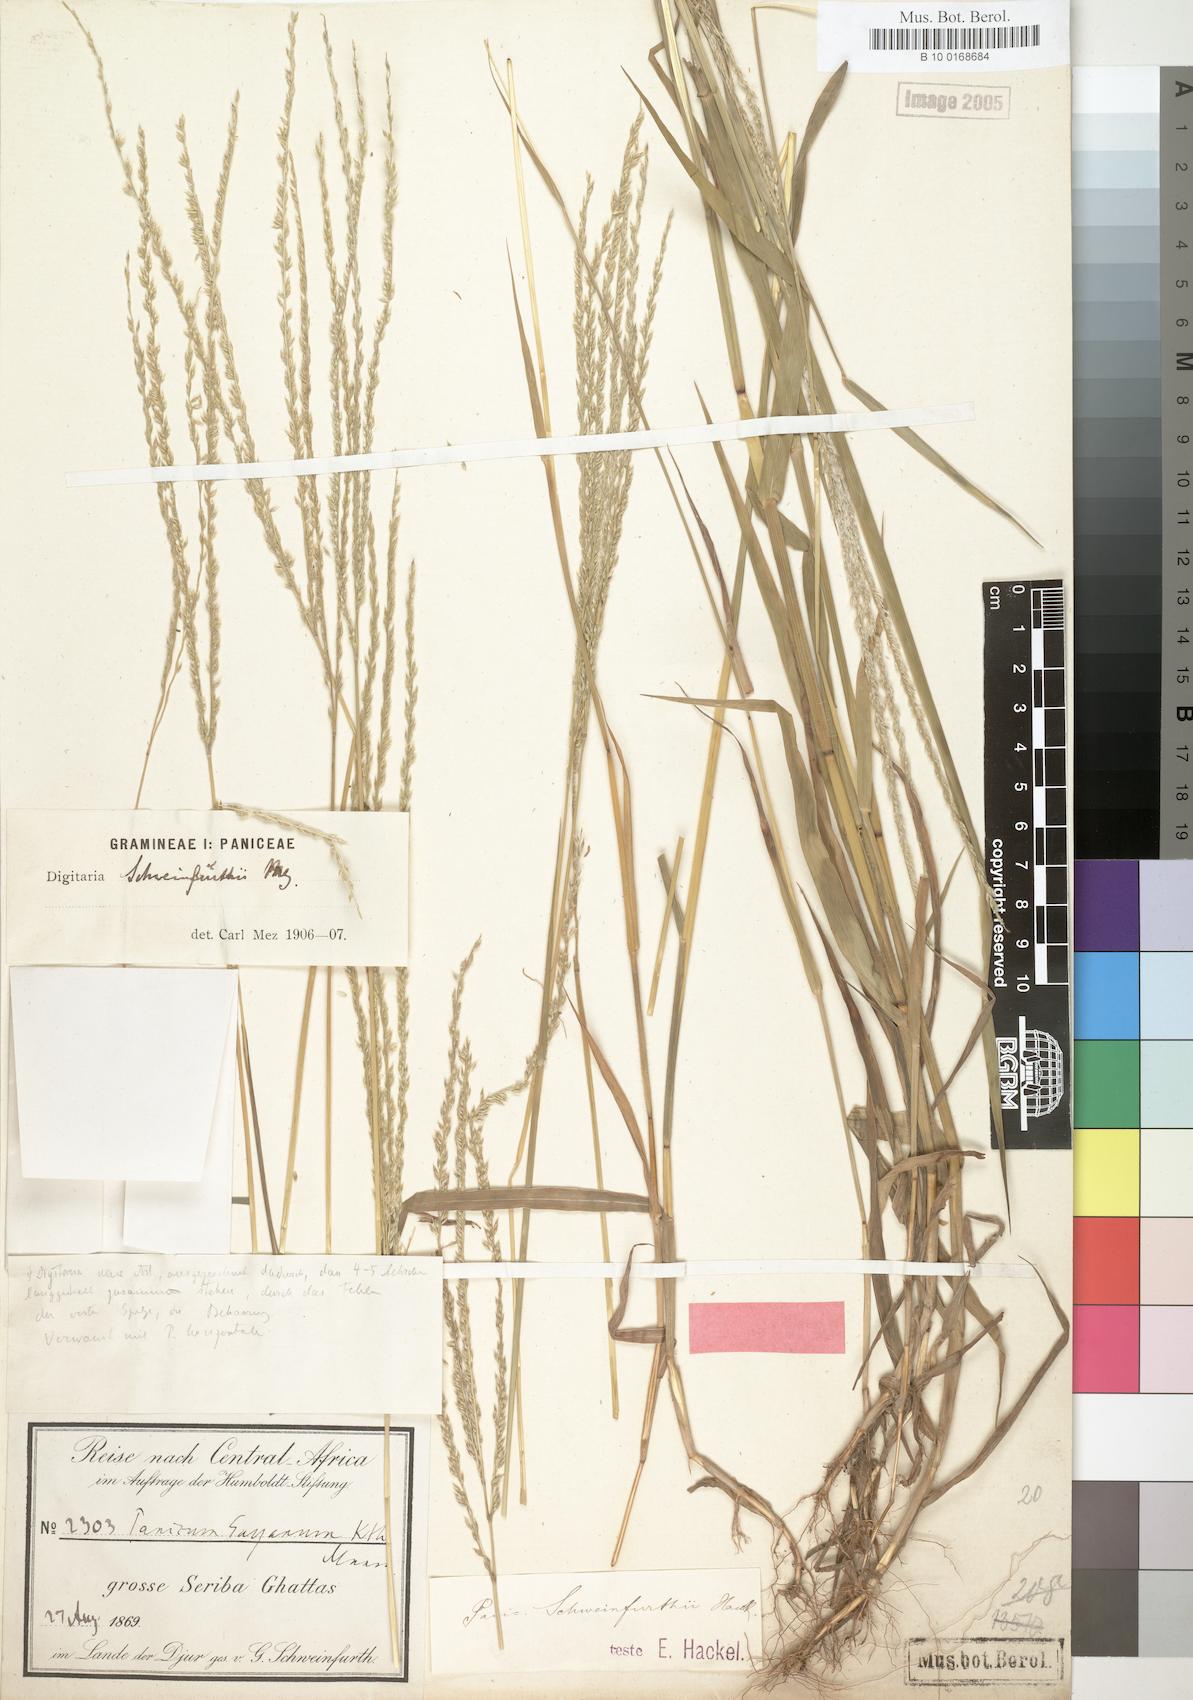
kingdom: Plantae
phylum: Tracheophyta
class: Liliopsida
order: Poales
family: Poaceae
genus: Digitaria
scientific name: Digitaria xanthotricha
